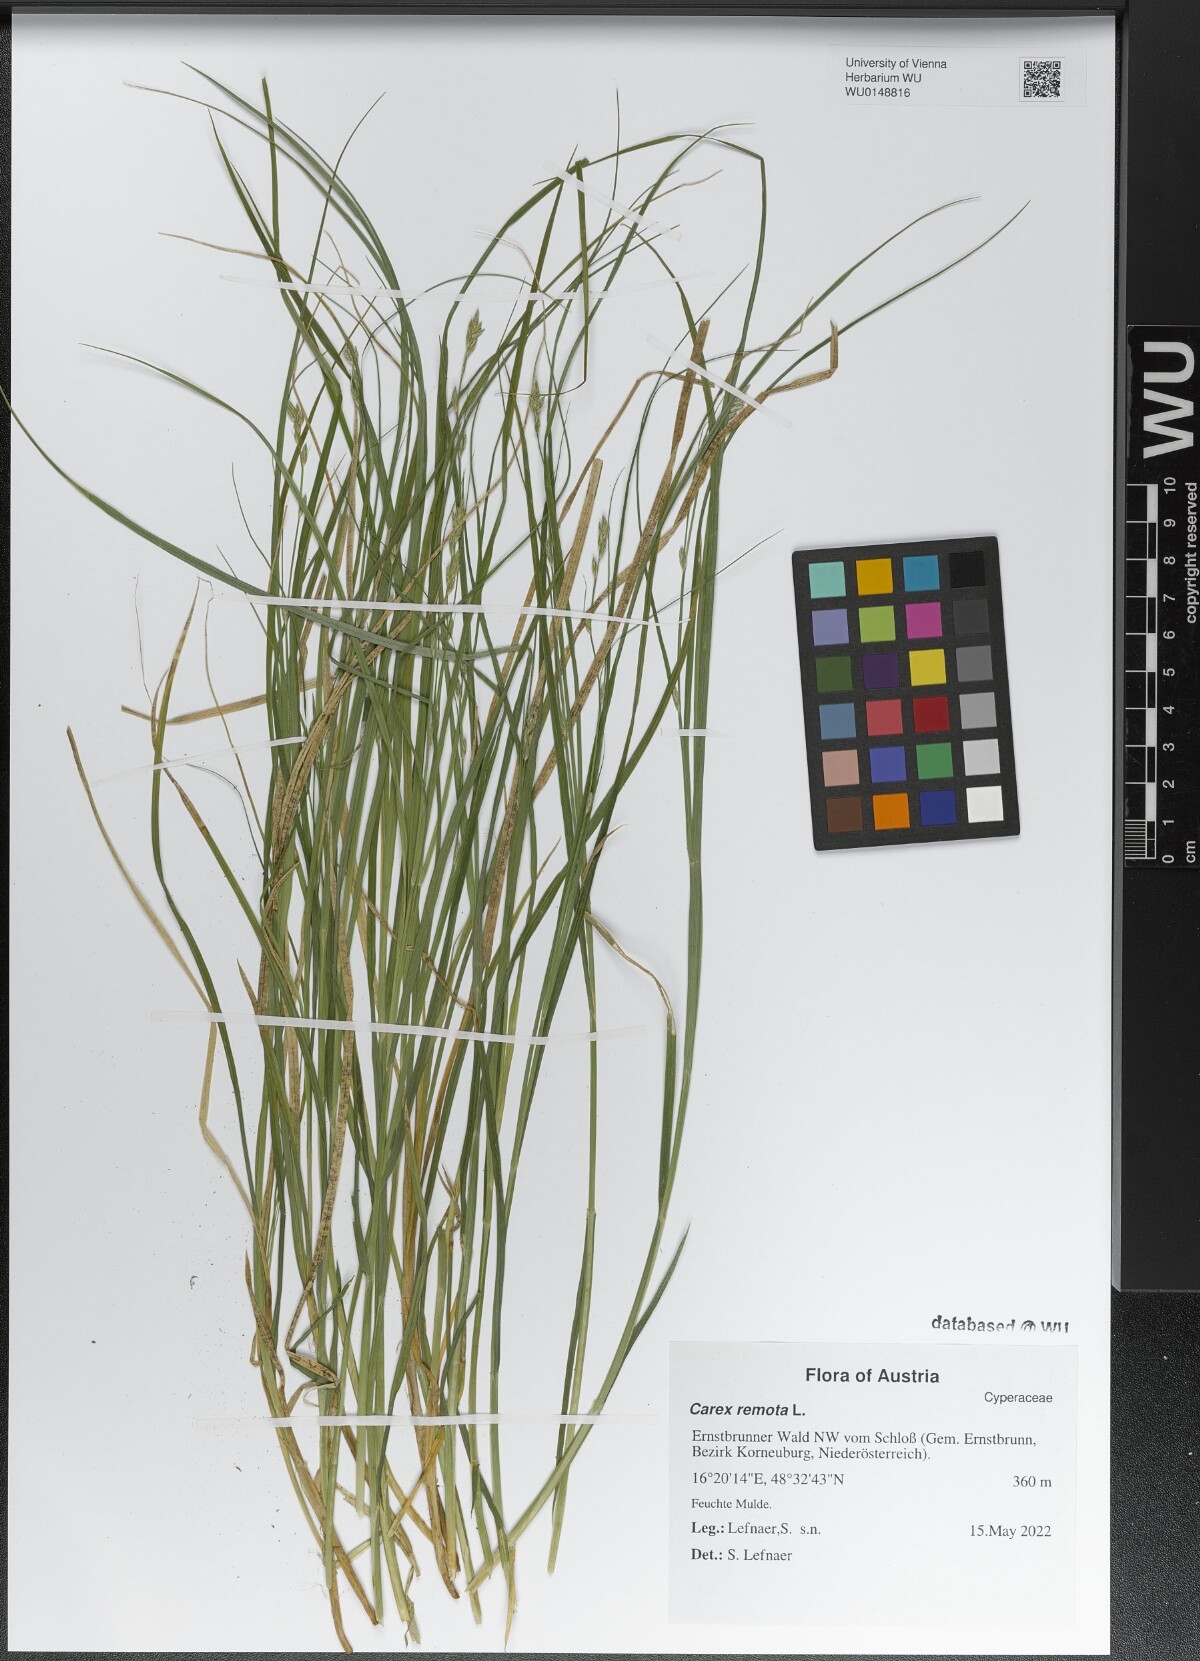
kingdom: Plantae
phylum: Tracheophyta
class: Liliopsida
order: Poales
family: Cyperaceae
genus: Carex
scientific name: Carex remota
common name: Remote sedge
